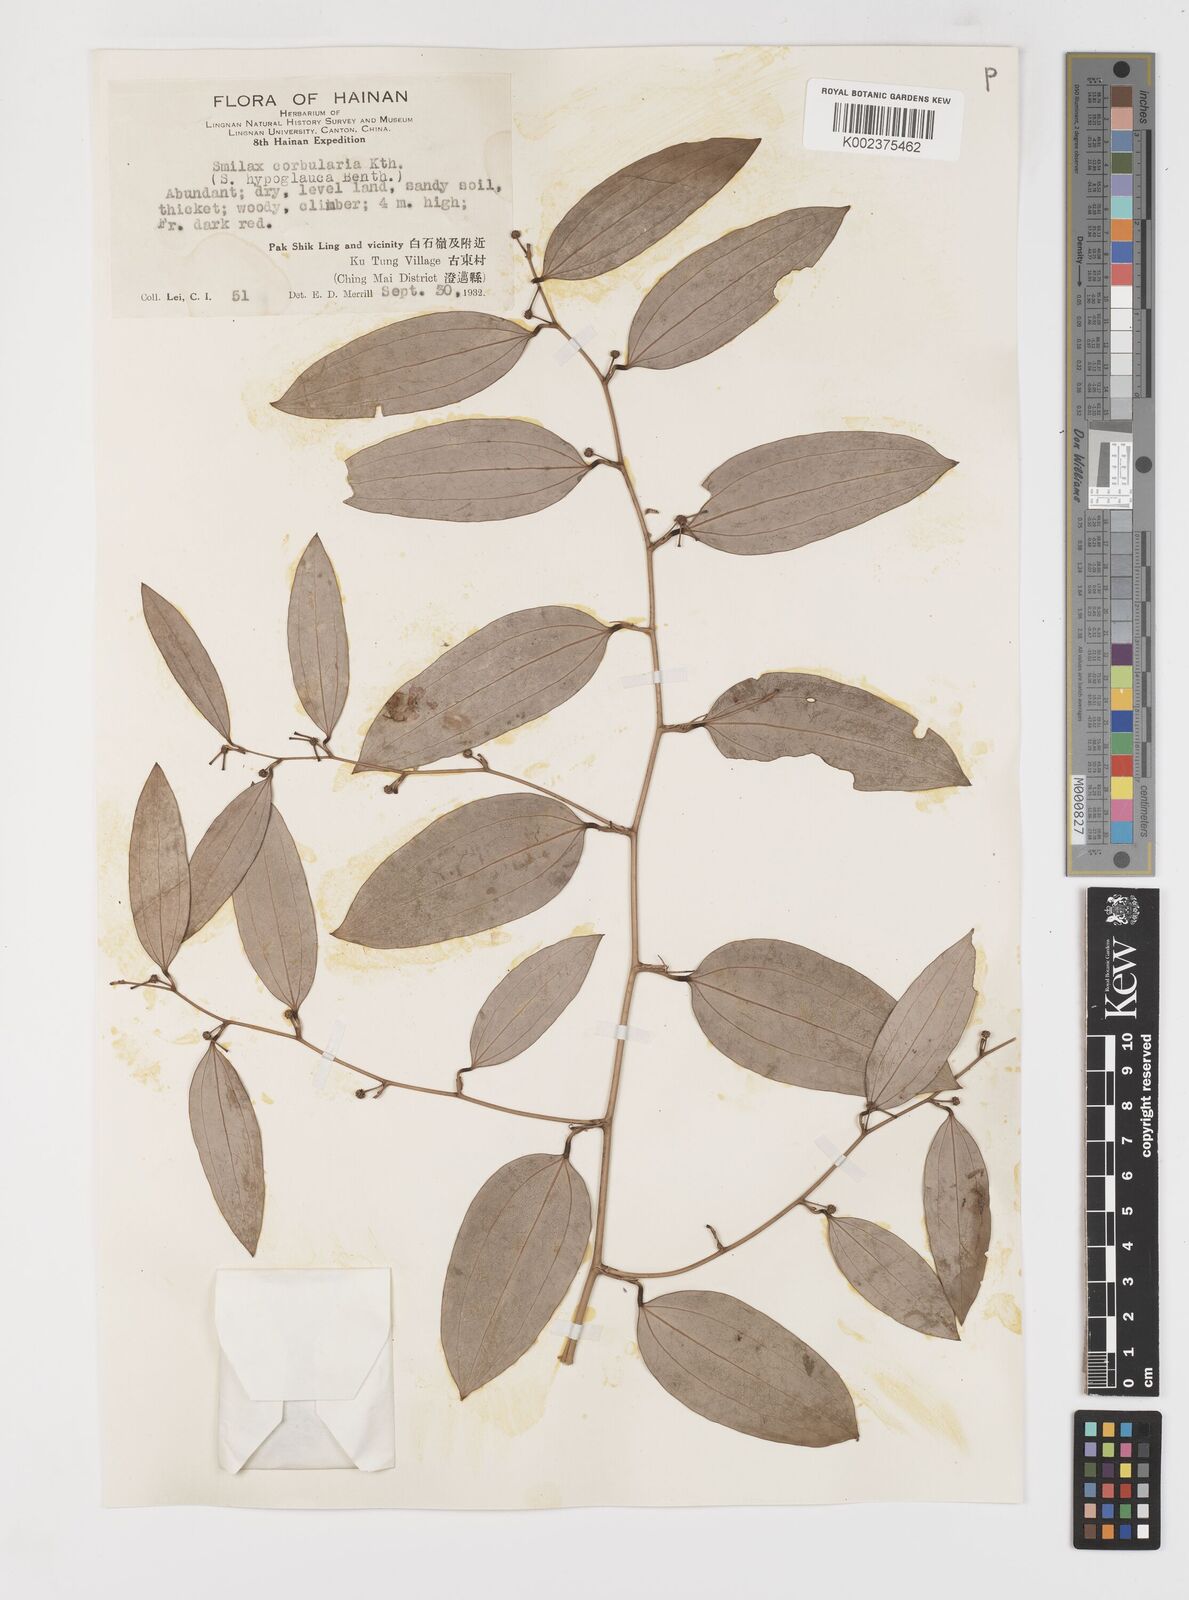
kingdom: Plantae
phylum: Tracheophyta
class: Liliopsida
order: Liliales
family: Smilacaceae
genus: Smilax
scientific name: Smilax hypoglauca
